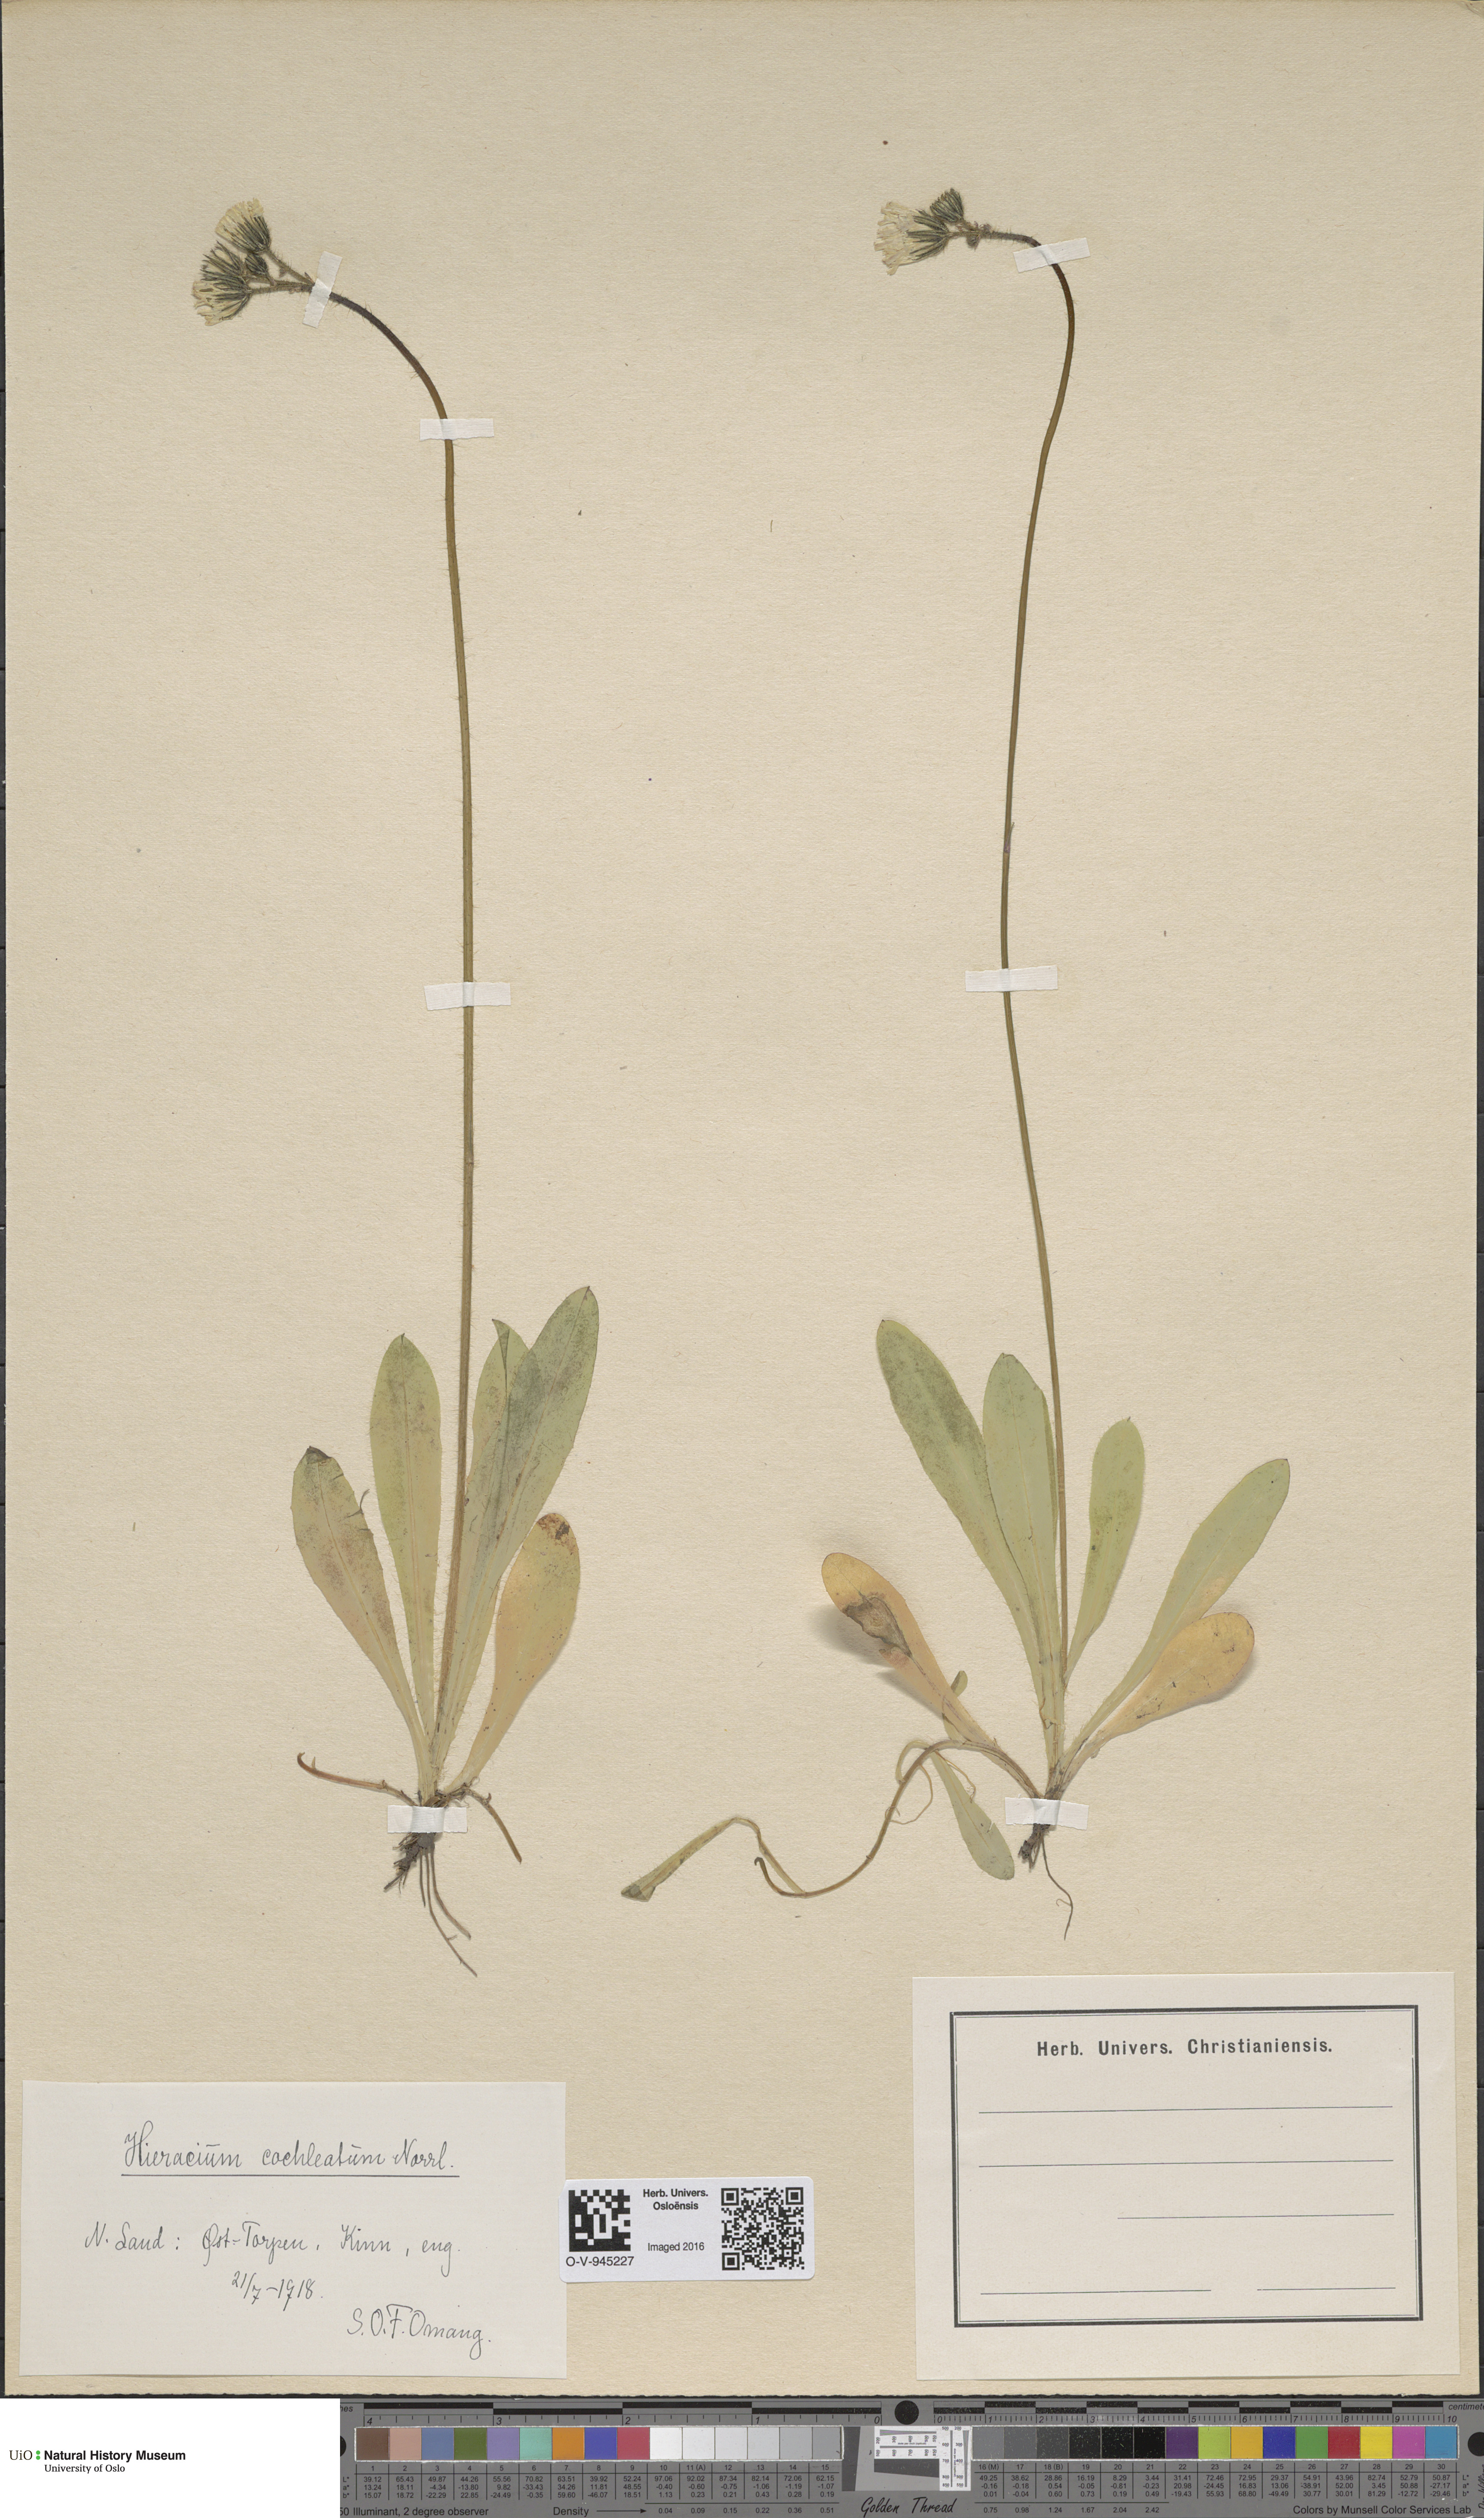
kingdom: Plantae
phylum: Tracheophyta
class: Magnoliopsida
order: Asterales
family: Asteraceae
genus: Pilosella
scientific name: Pilosella floribunda
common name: Glaucous hawkweed
